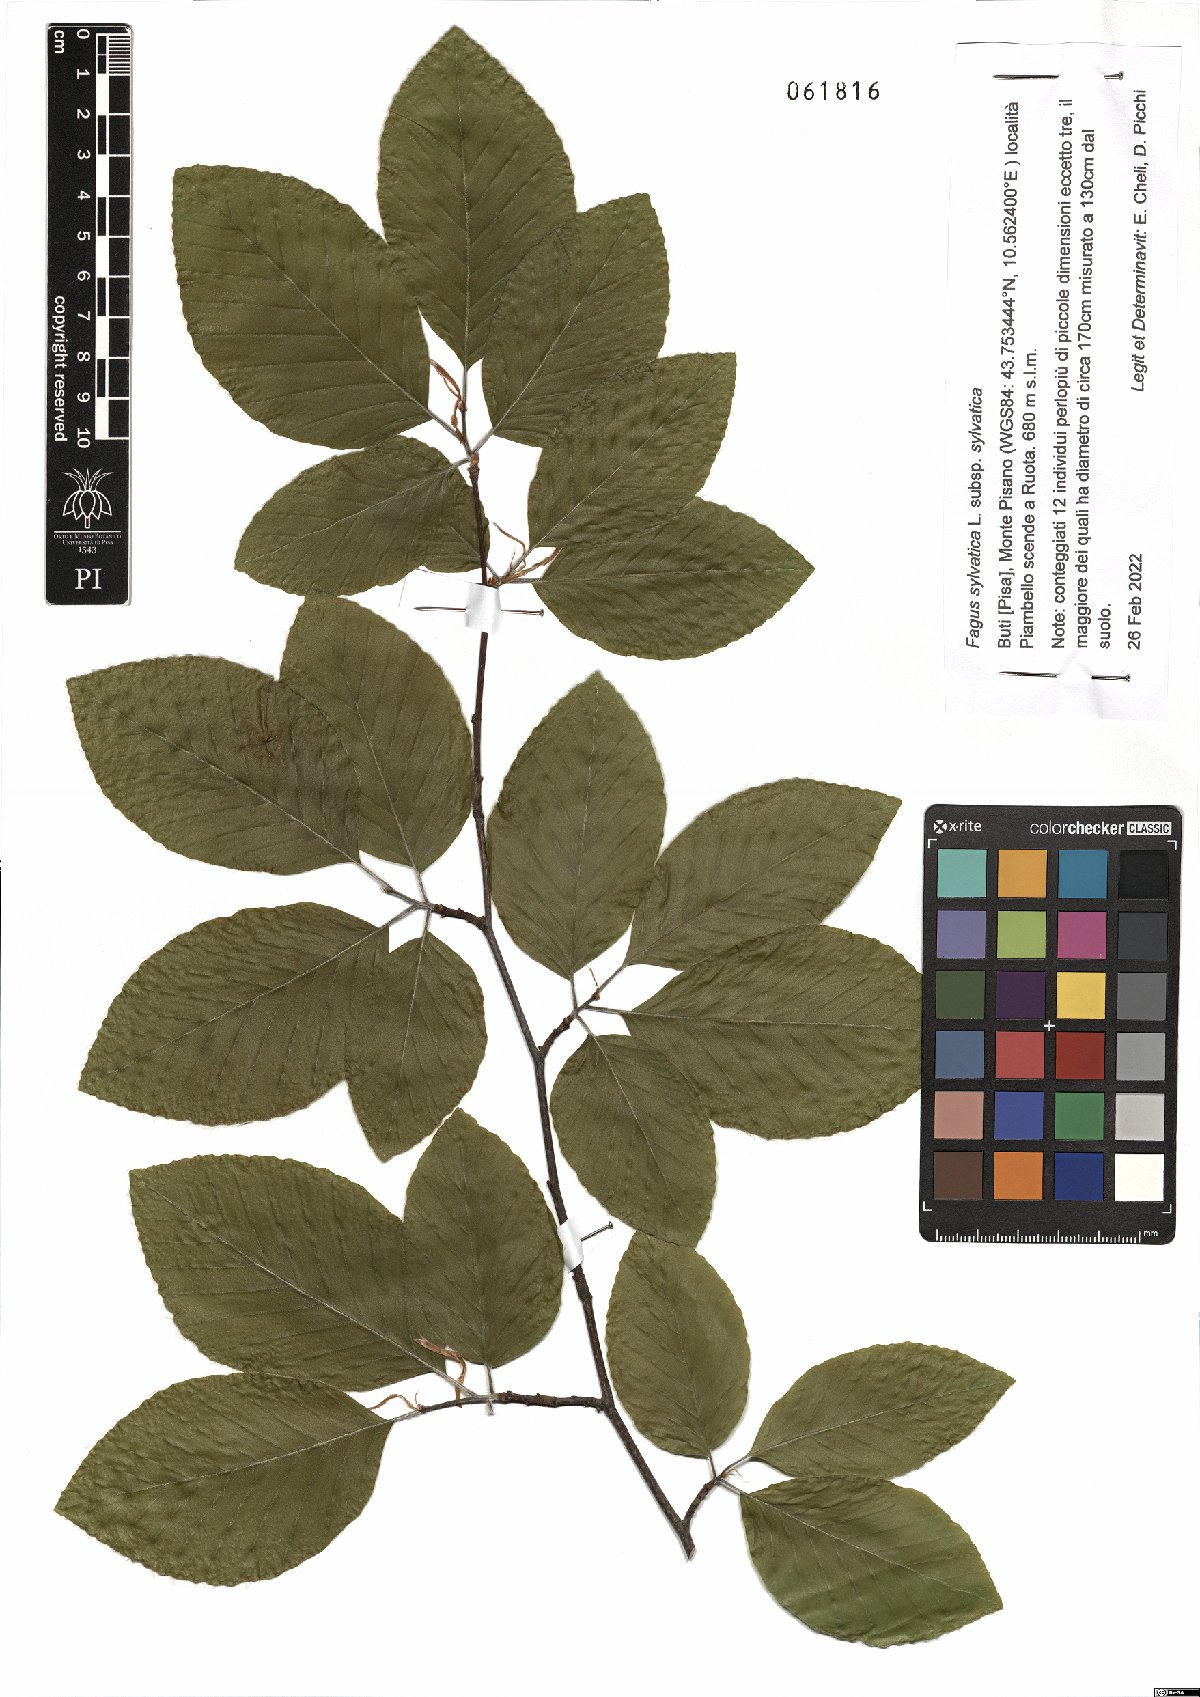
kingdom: Plantae
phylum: Tracheophyta
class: Magnoliopsida
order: Fagales
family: Fagaceae
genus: Fagus
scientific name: Fagus sylvatica
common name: Beech
